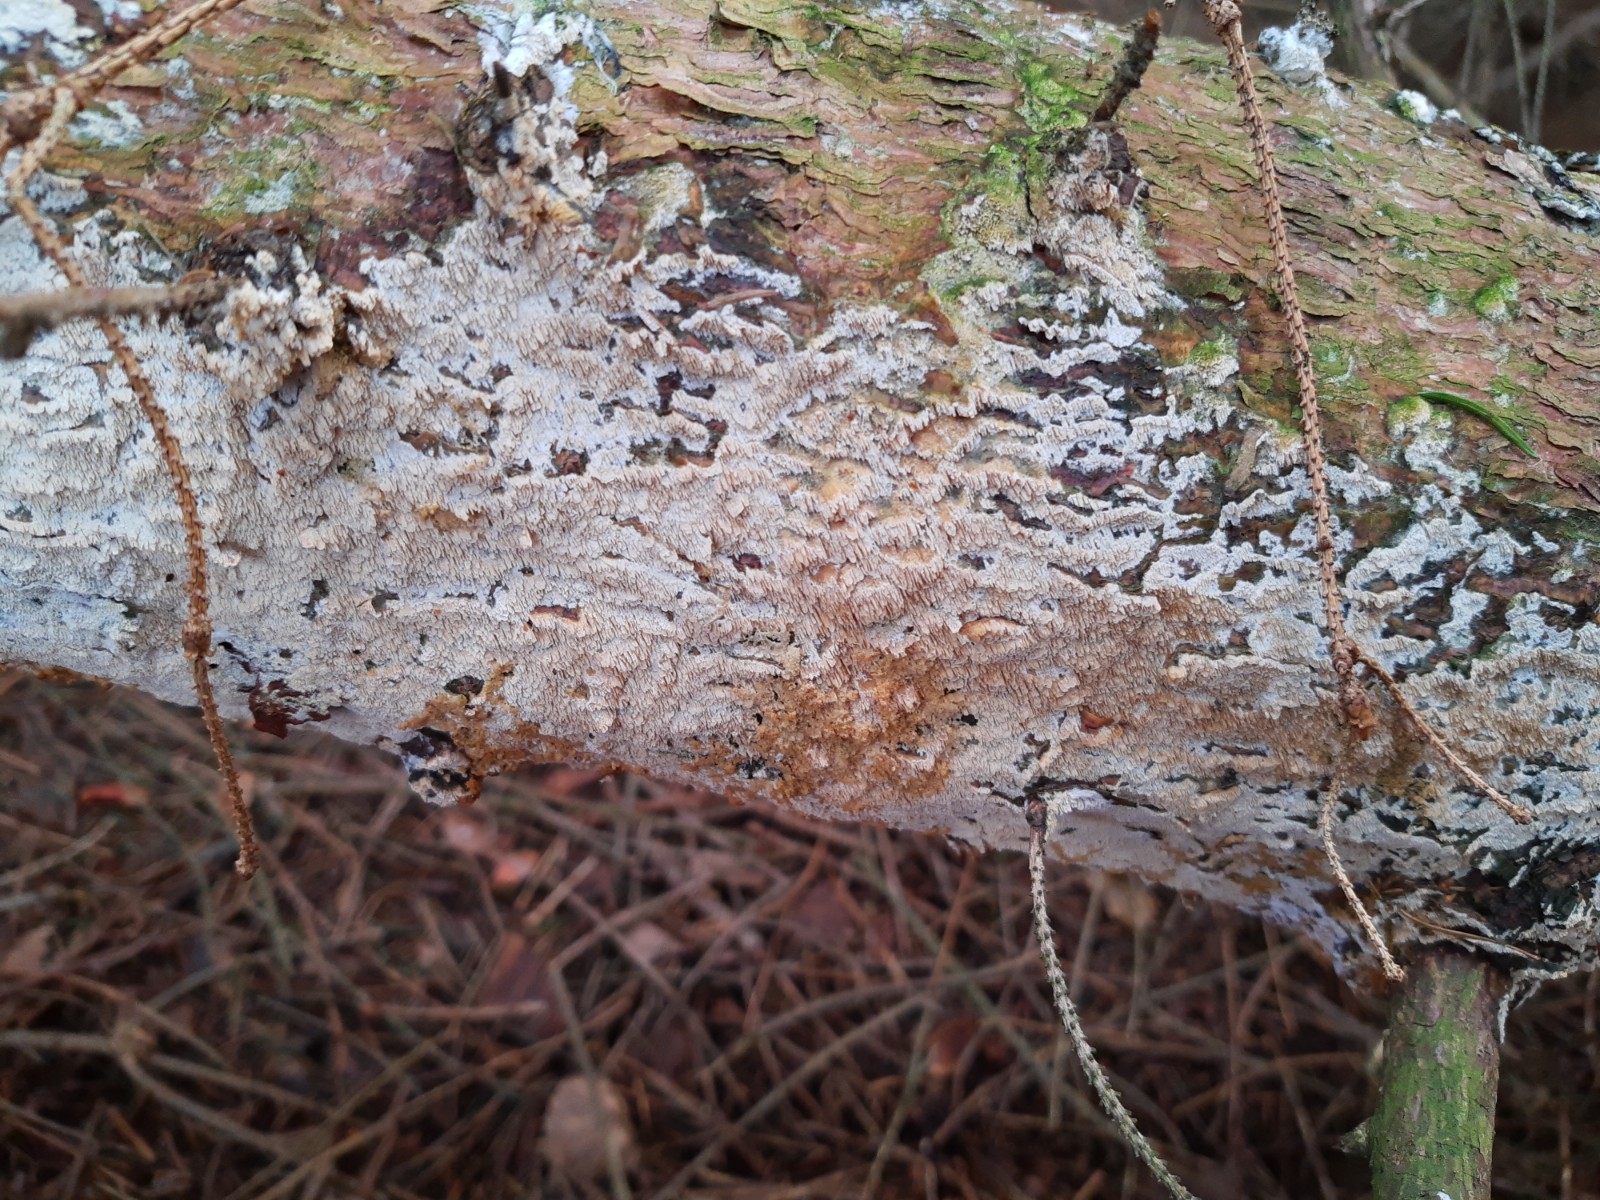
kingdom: Fungi
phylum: Basidiomycota
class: Agaricomycetes
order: Hymenochaetales
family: Schizoporaceae
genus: Xylodon
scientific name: Xylodon
